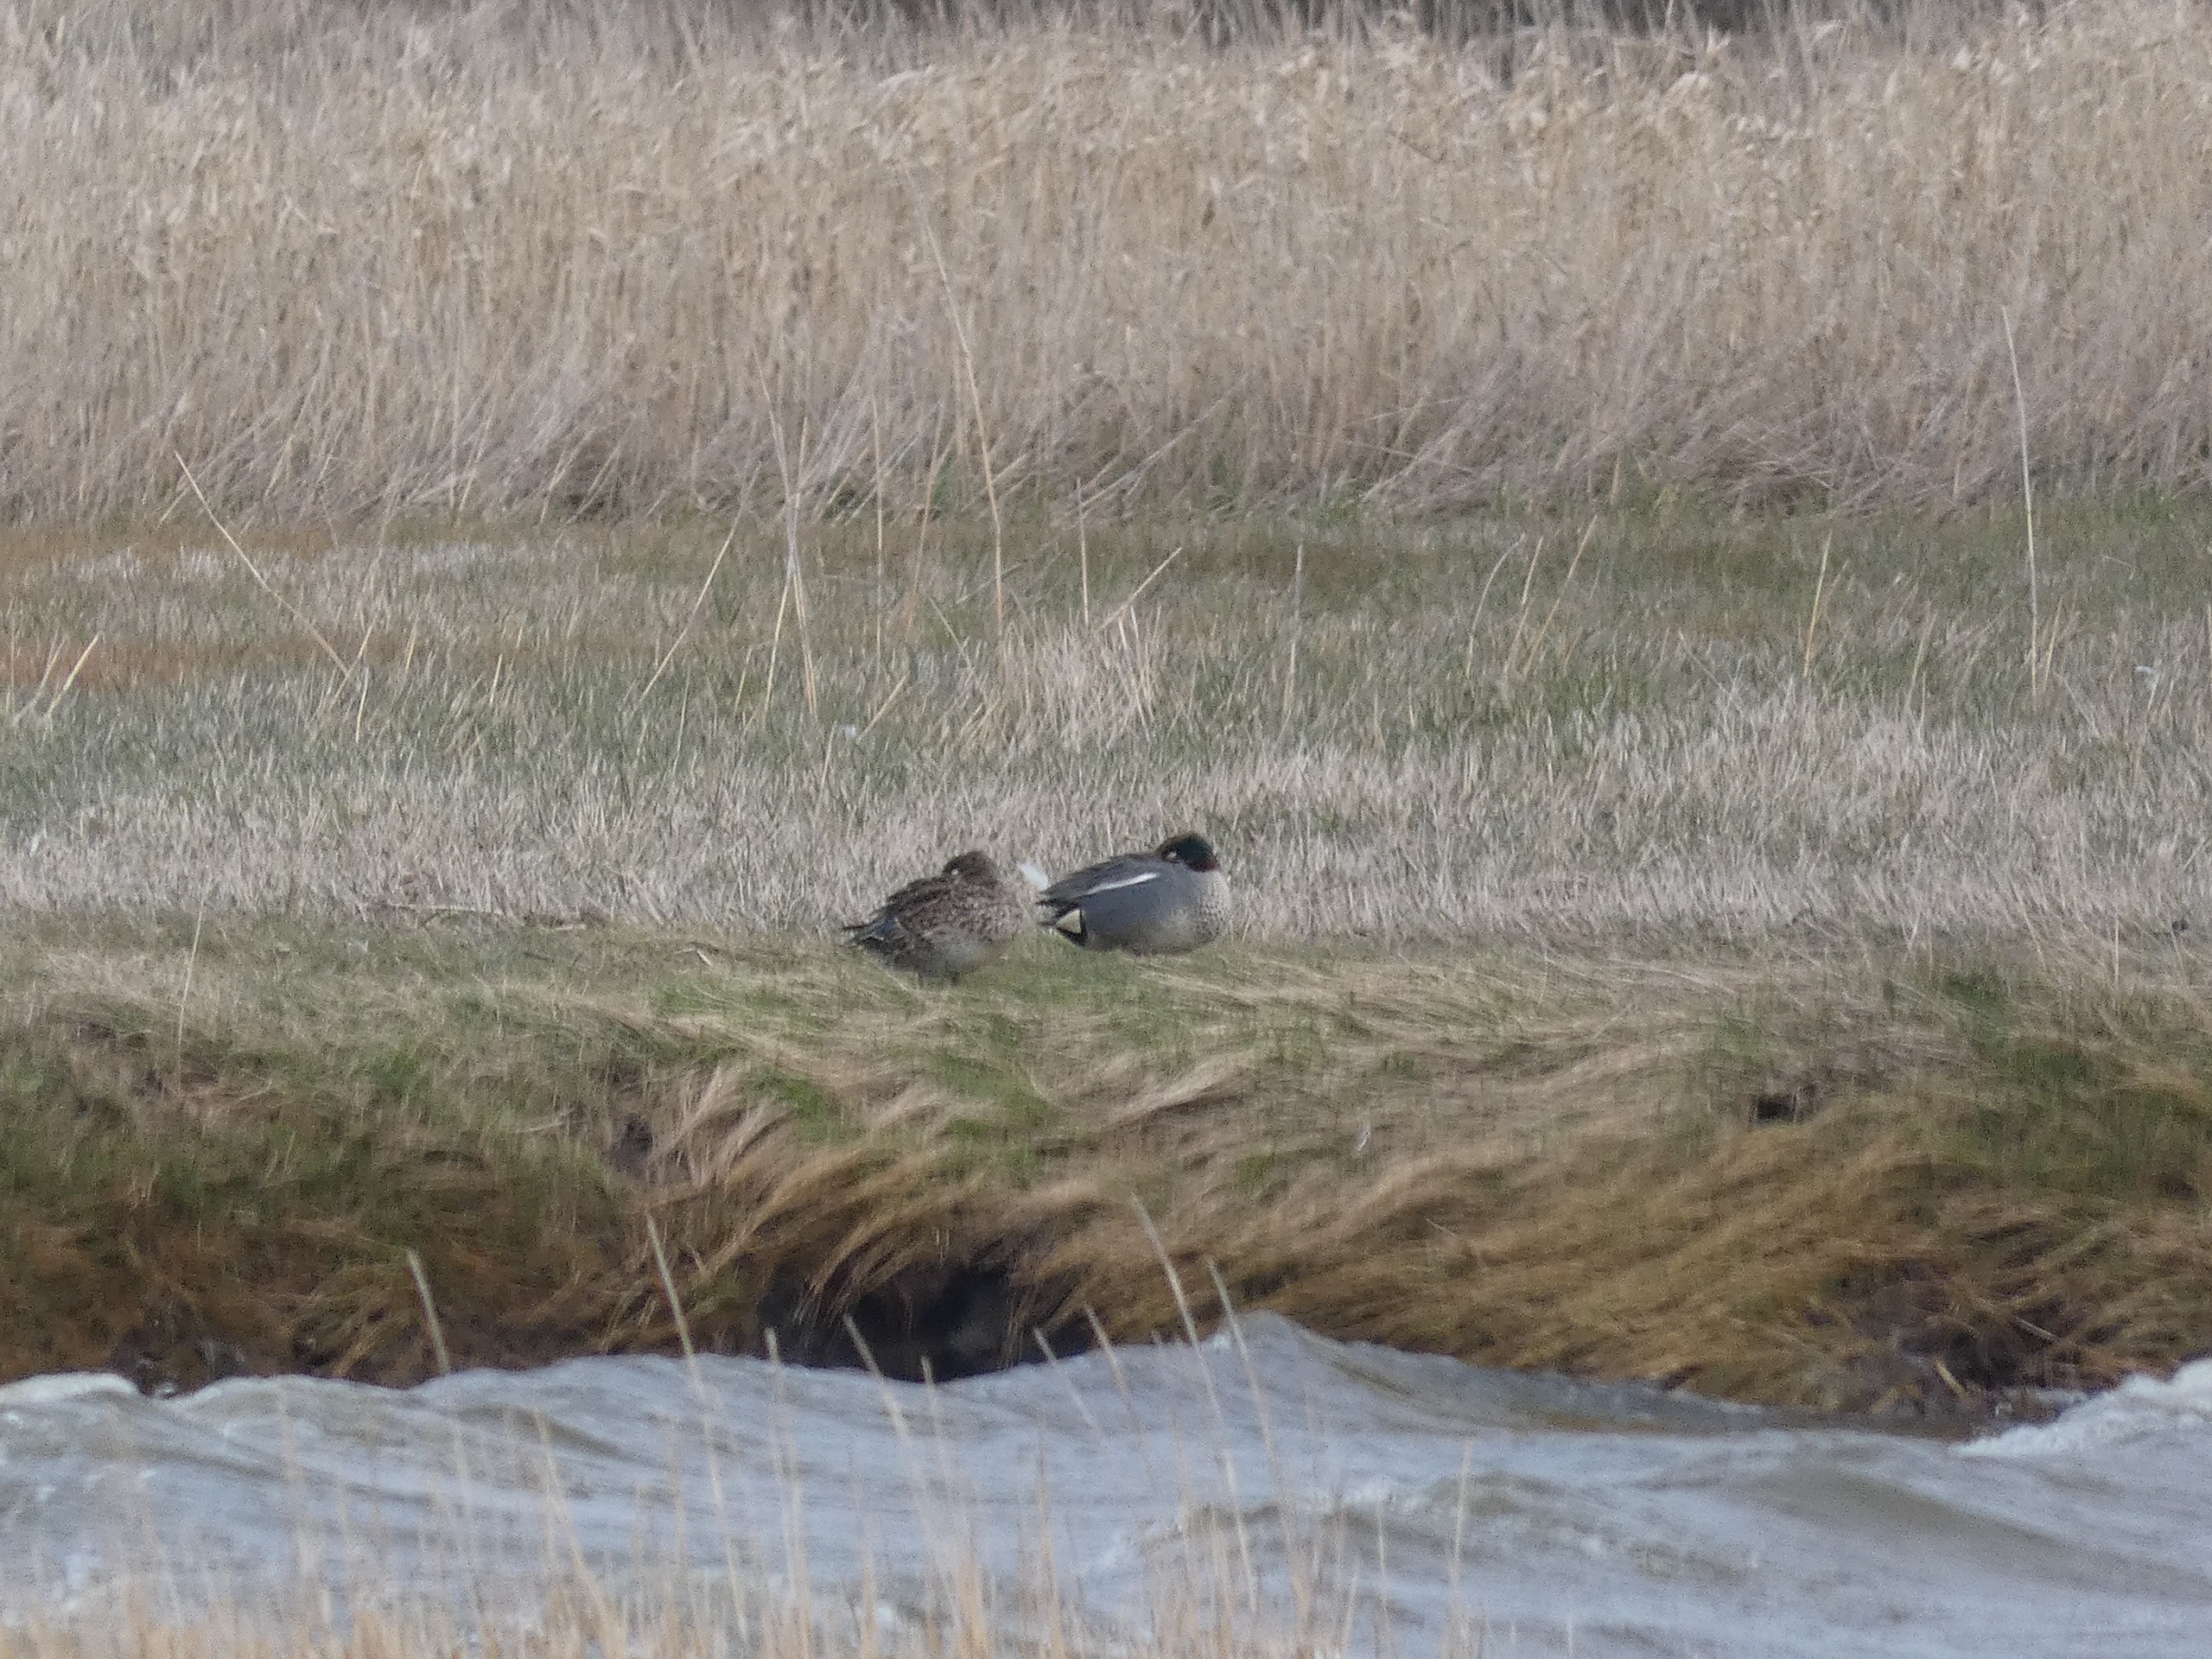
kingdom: Animalia
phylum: Chordata
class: Aves
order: Anseriformes
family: Anatidae
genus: Anas
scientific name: Anas crecca
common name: Krikand
